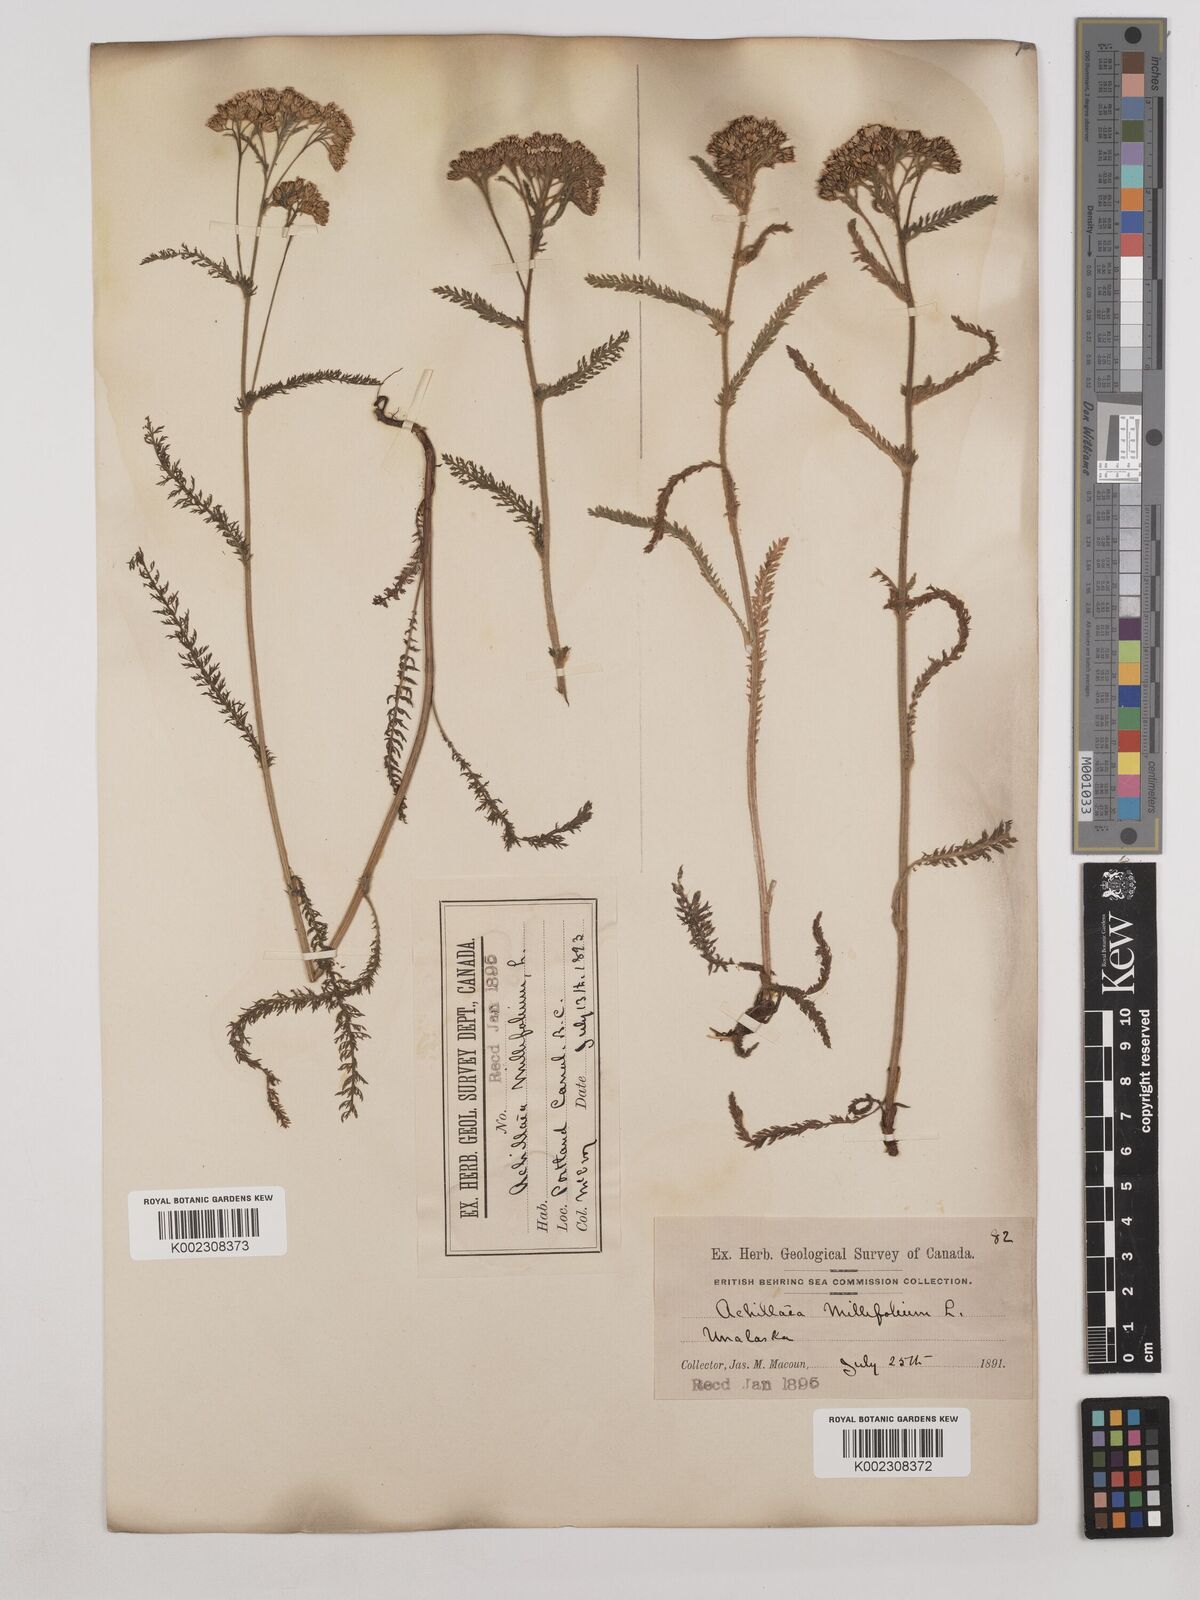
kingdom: Plantae
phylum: Tracheophyta
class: Magnoliopsida
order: Asterales
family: Asteraceae
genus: Achillea
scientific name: Achillea millefolium
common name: Yarrow
